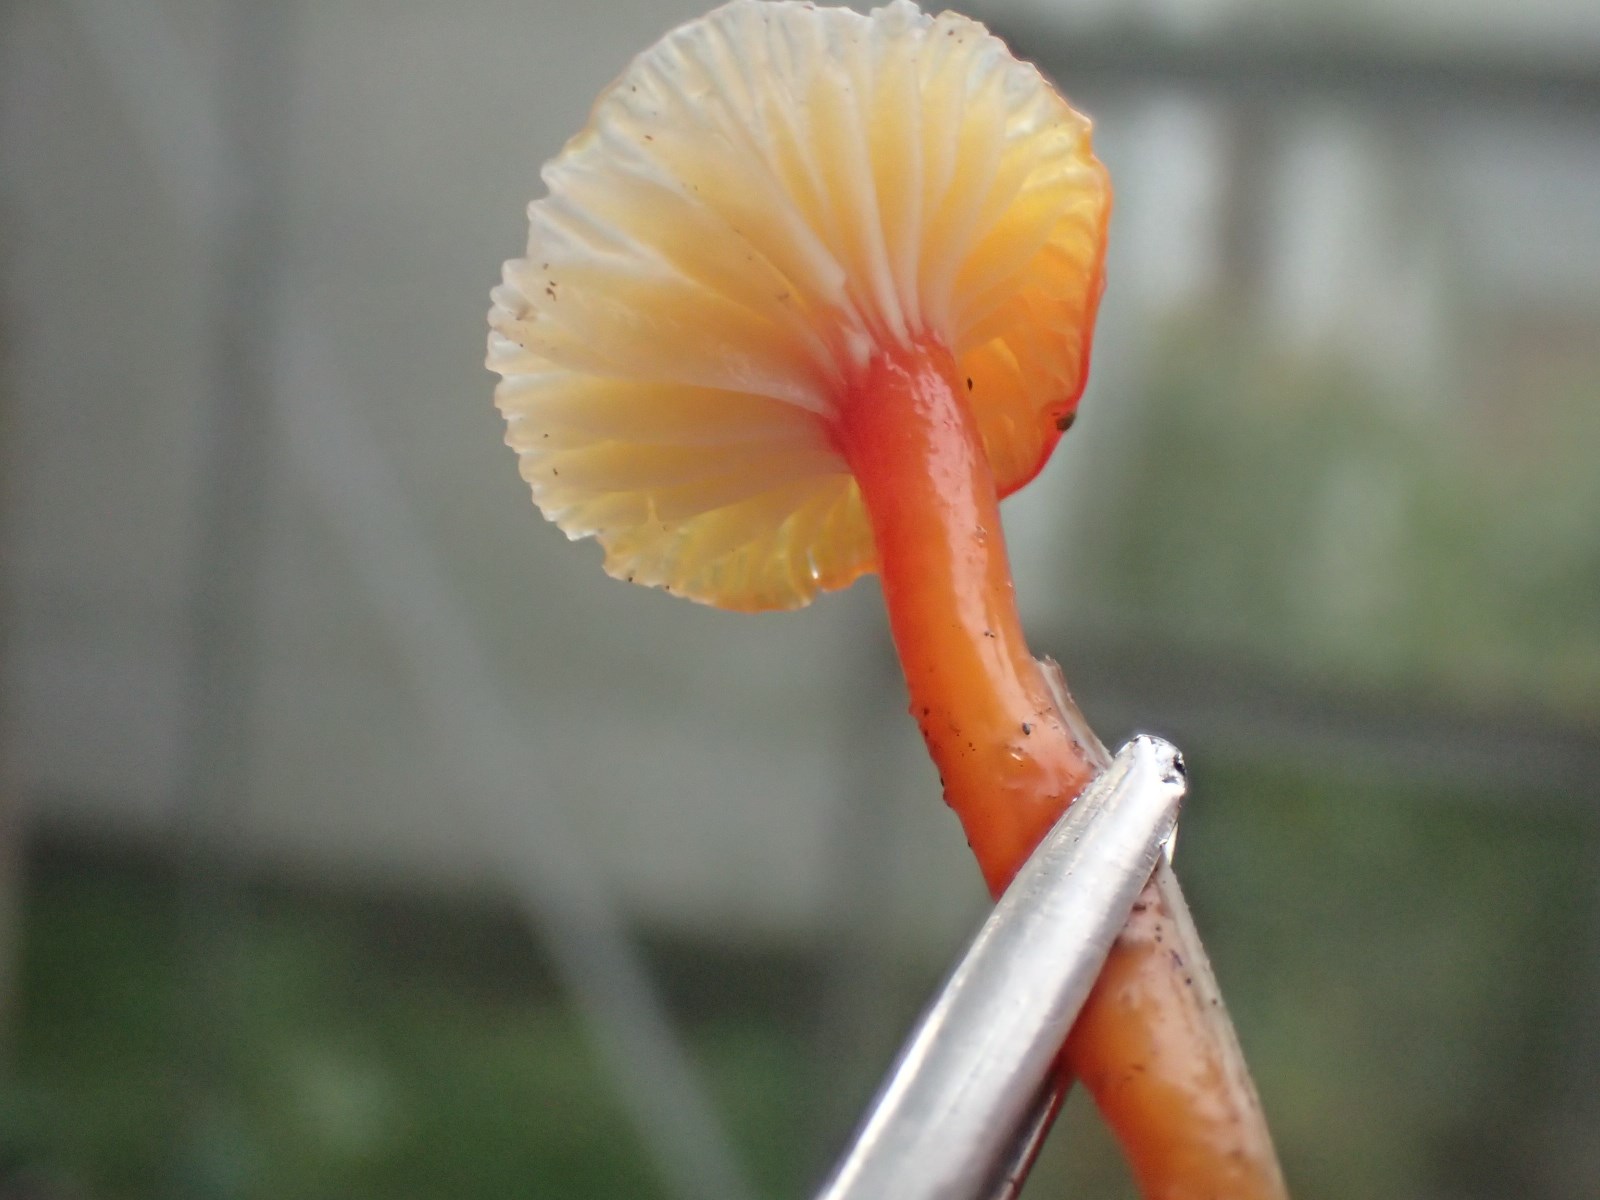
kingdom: Fungi
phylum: Basidiomycota
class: Agaricomycetes
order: Agaricales
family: Hygrophoraceae
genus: Hygrocybe
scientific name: Hygrocybe insipida
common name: liden vokshat
